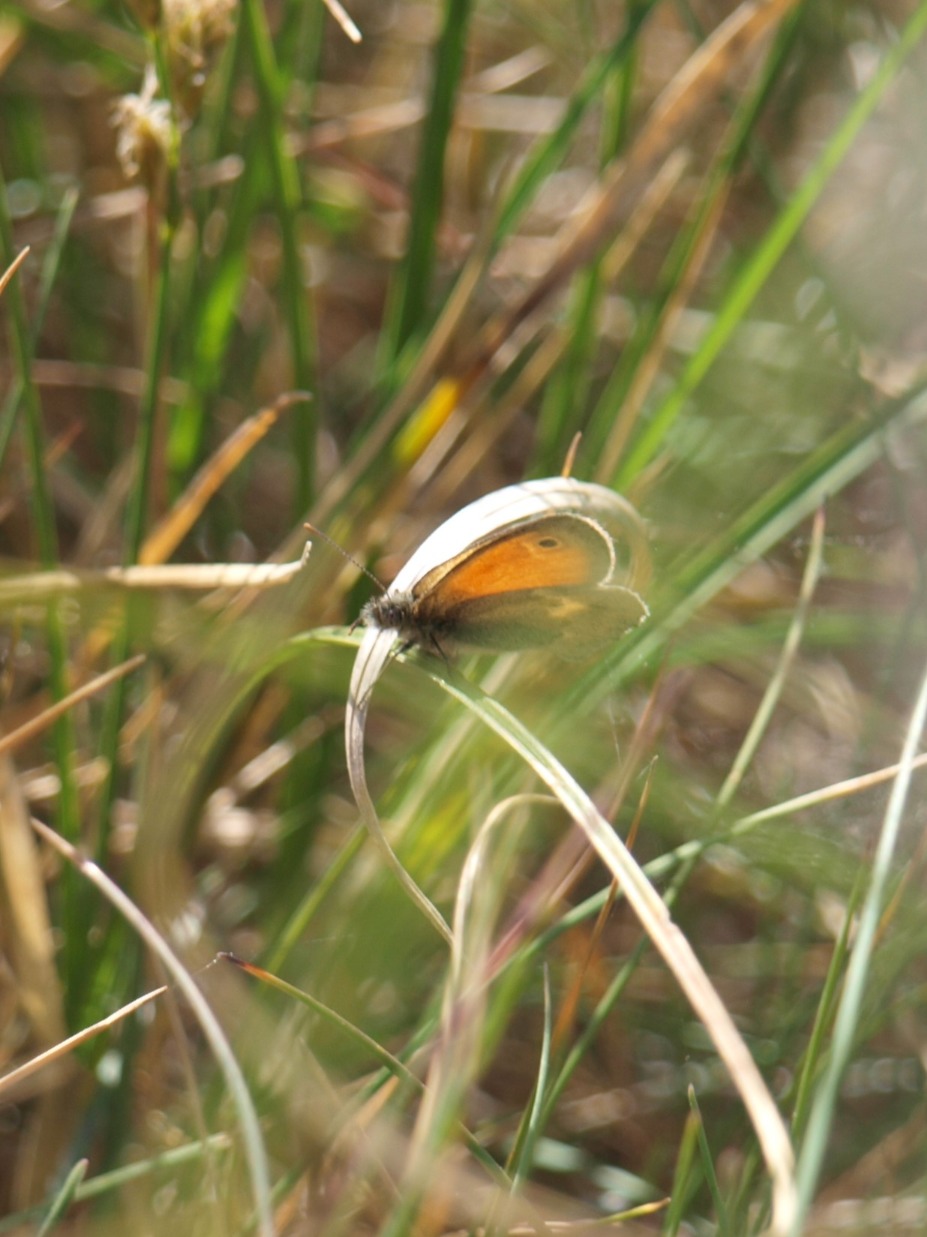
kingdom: Animalia
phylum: Arthropoda
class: Insecta
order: Lepidoptera
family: Nymphalidae
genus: Coenonympha
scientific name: Coenonympha pamphilus
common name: Okkergul randøje
